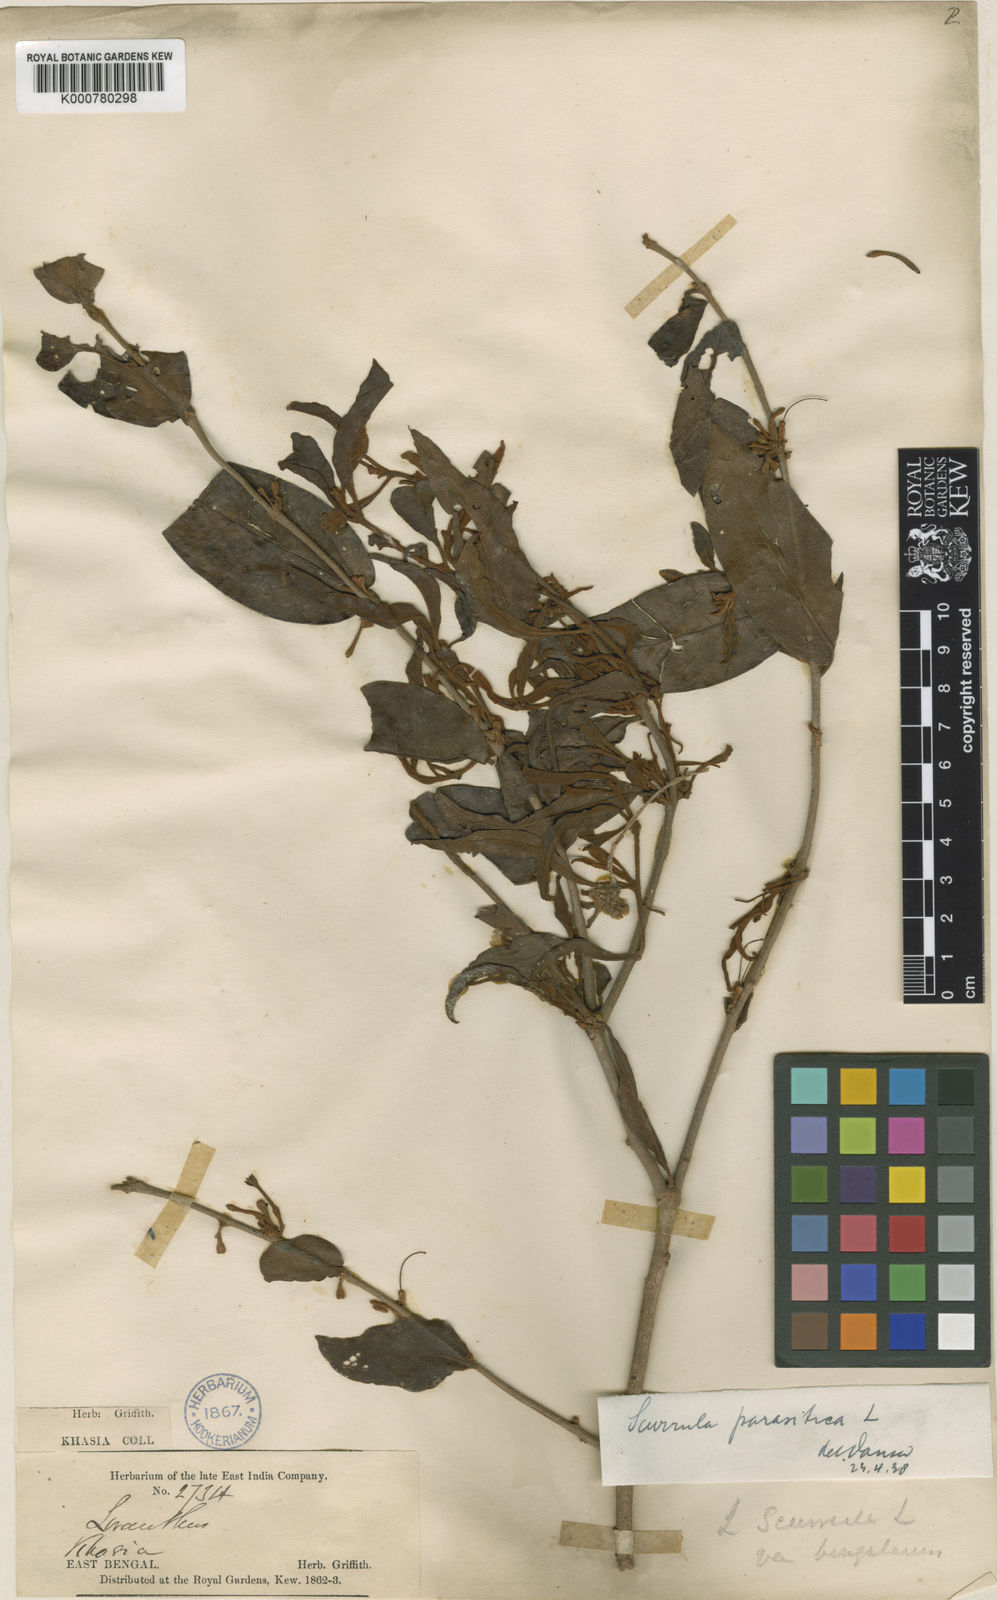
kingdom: Plantae
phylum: Tracheophyta
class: Magnoliopsida
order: Santalales
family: Loranthaceae
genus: Scurrula
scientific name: Scurrula parasitica
